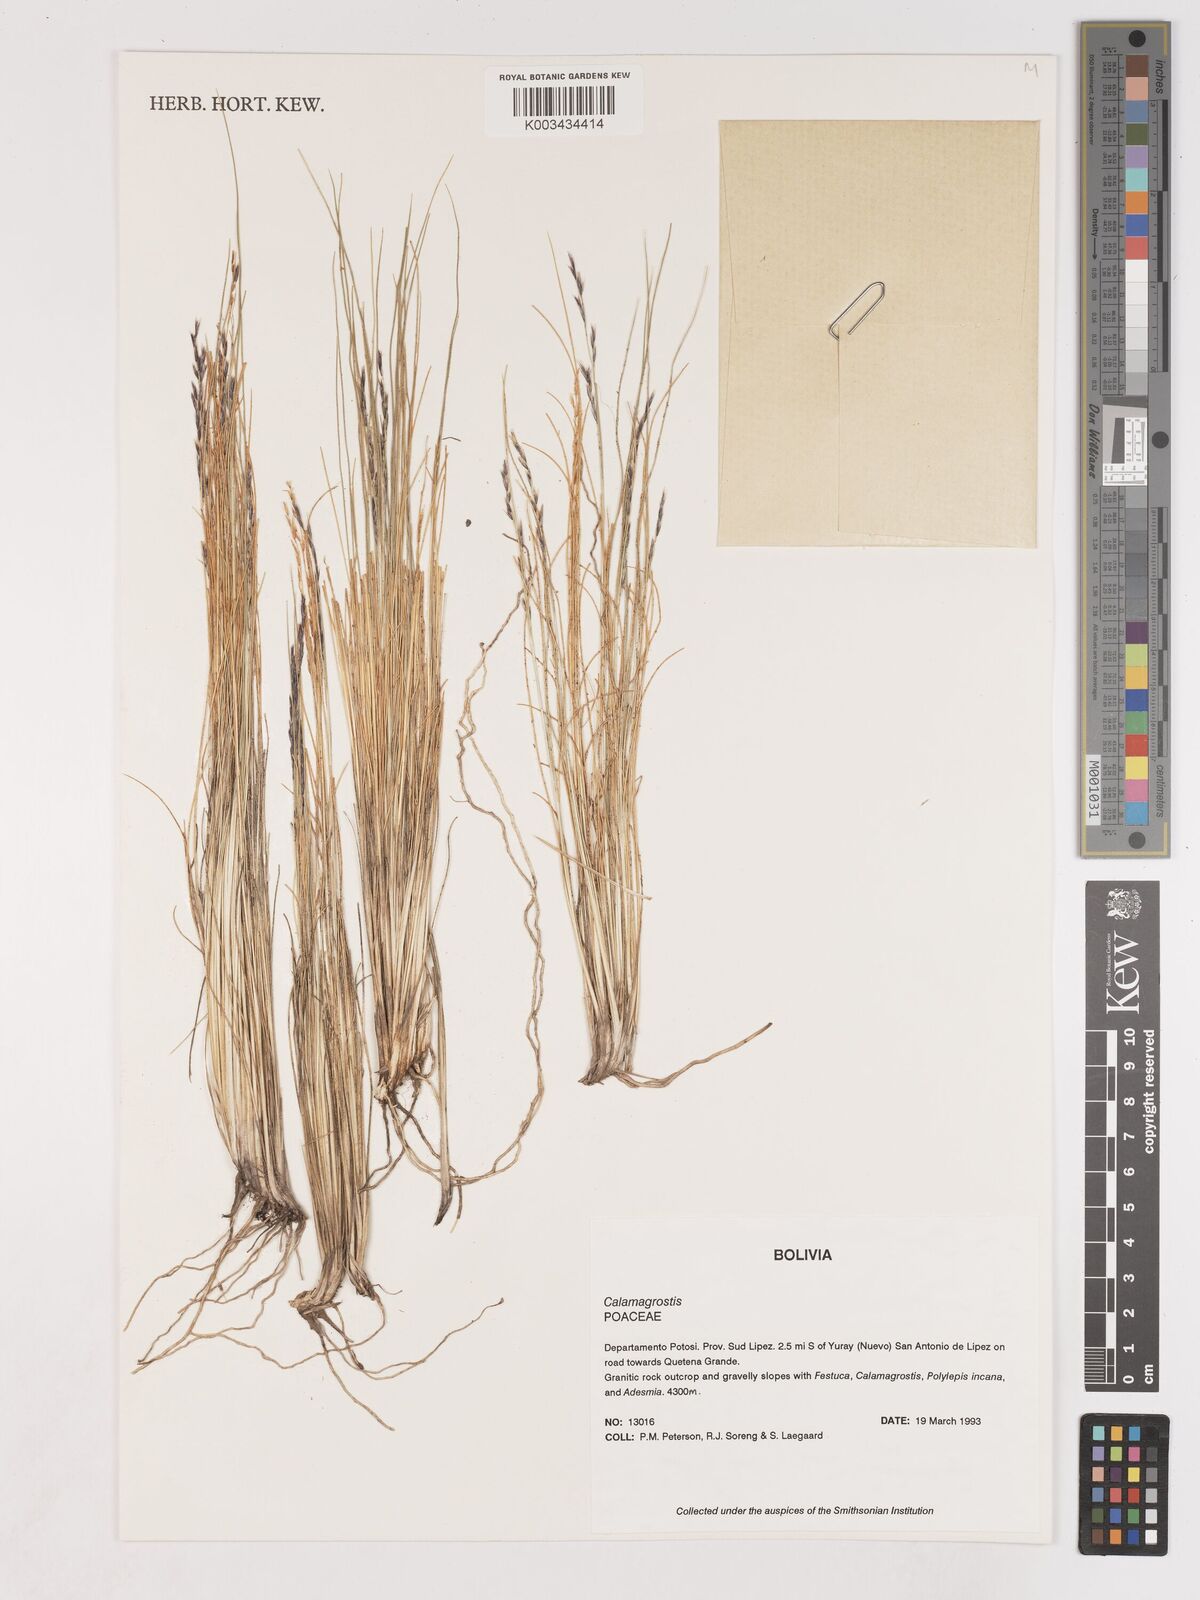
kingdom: Plantae
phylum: Tracheophyta
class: Liliopsida
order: Poales
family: Poaceae
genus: Cinnagrostis
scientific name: Cinnagrostis filifolia
